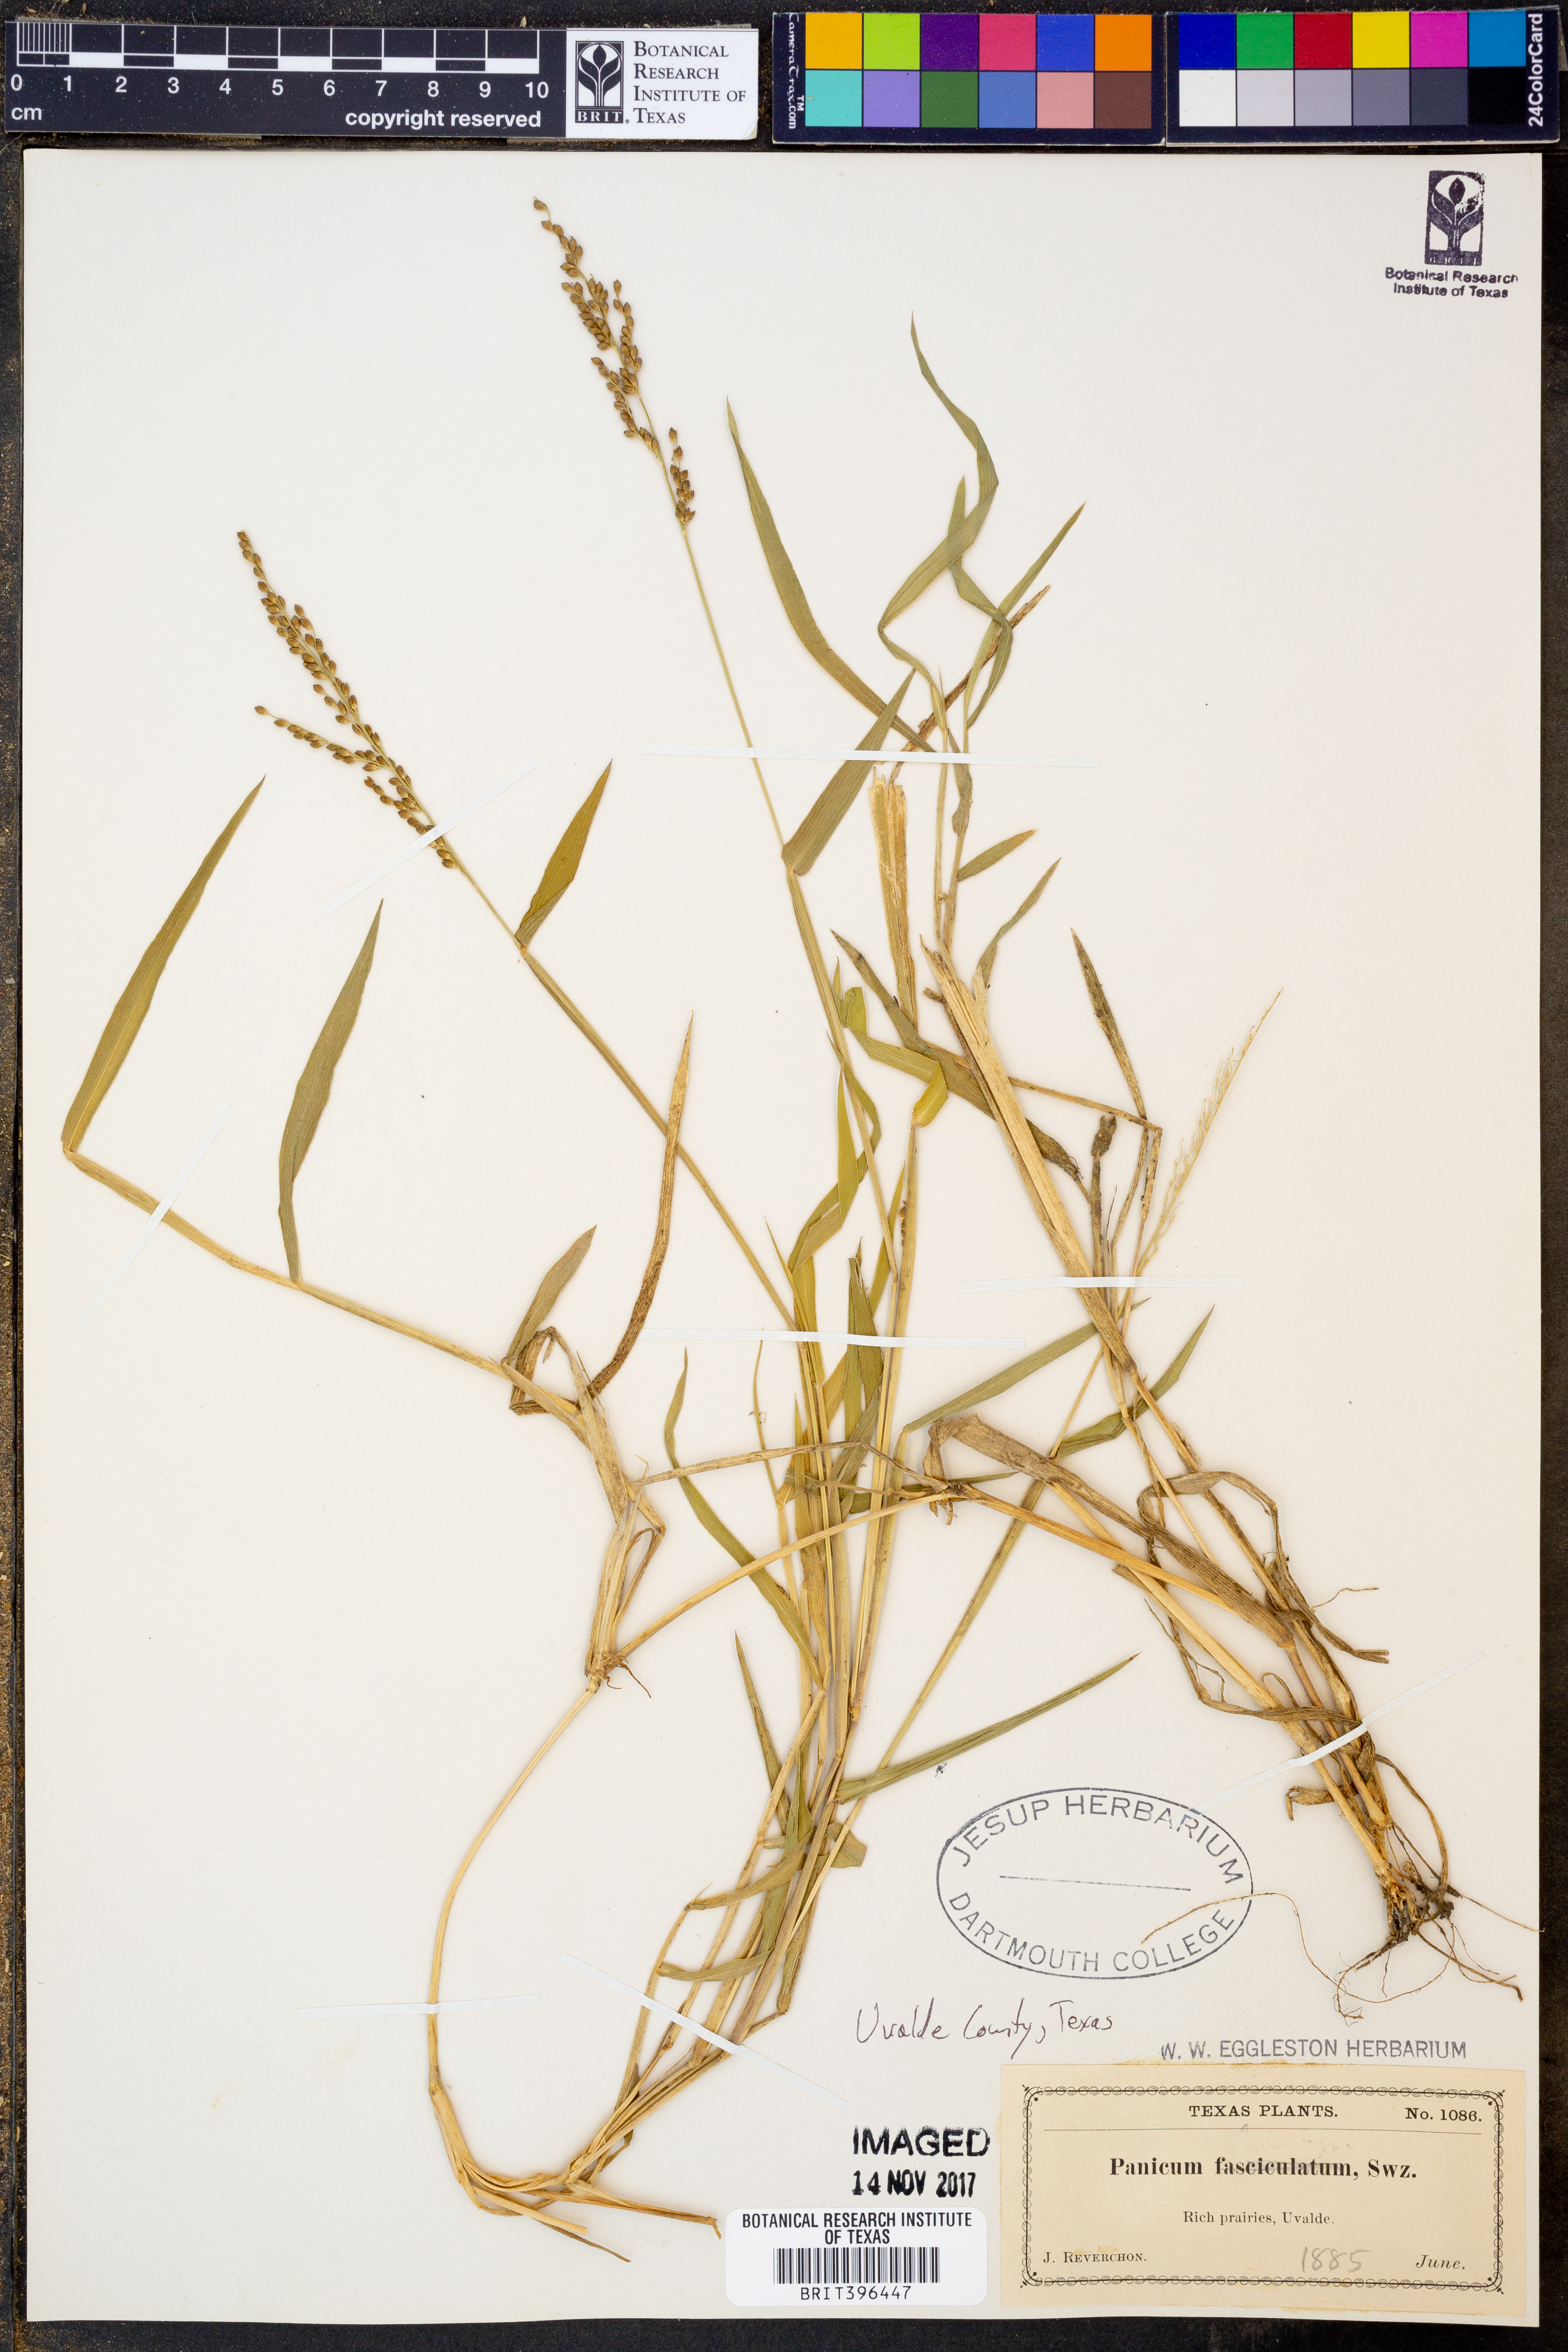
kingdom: Plantae
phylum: Tracheophyta
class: Liliopsida
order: Poales
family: Poaceae
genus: Urochloa
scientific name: Urochloa fusca
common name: Browntop signal grass
